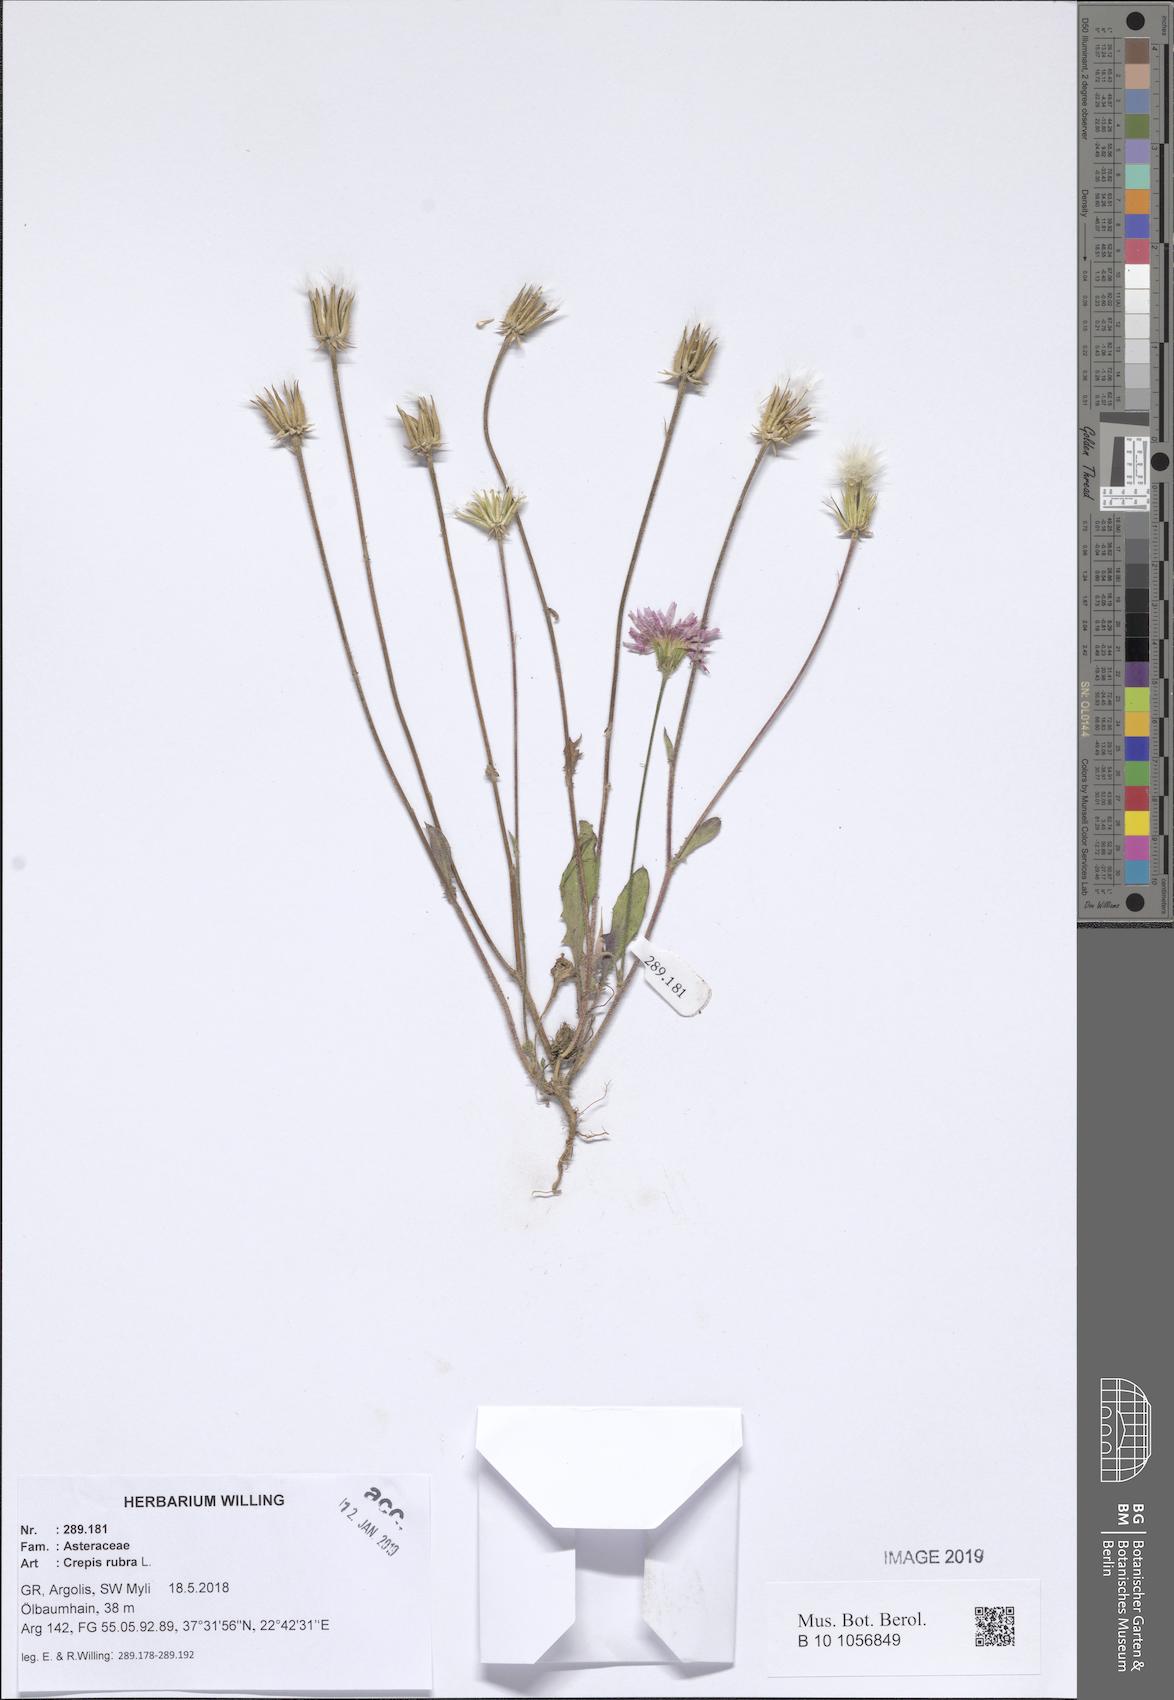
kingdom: Plantae
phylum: Tracheophyta
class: Magnoliopsida
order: Asterales
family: Asteraceae
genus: Crepis
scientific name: Crepis rubra
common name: Pink hawk's-beard
